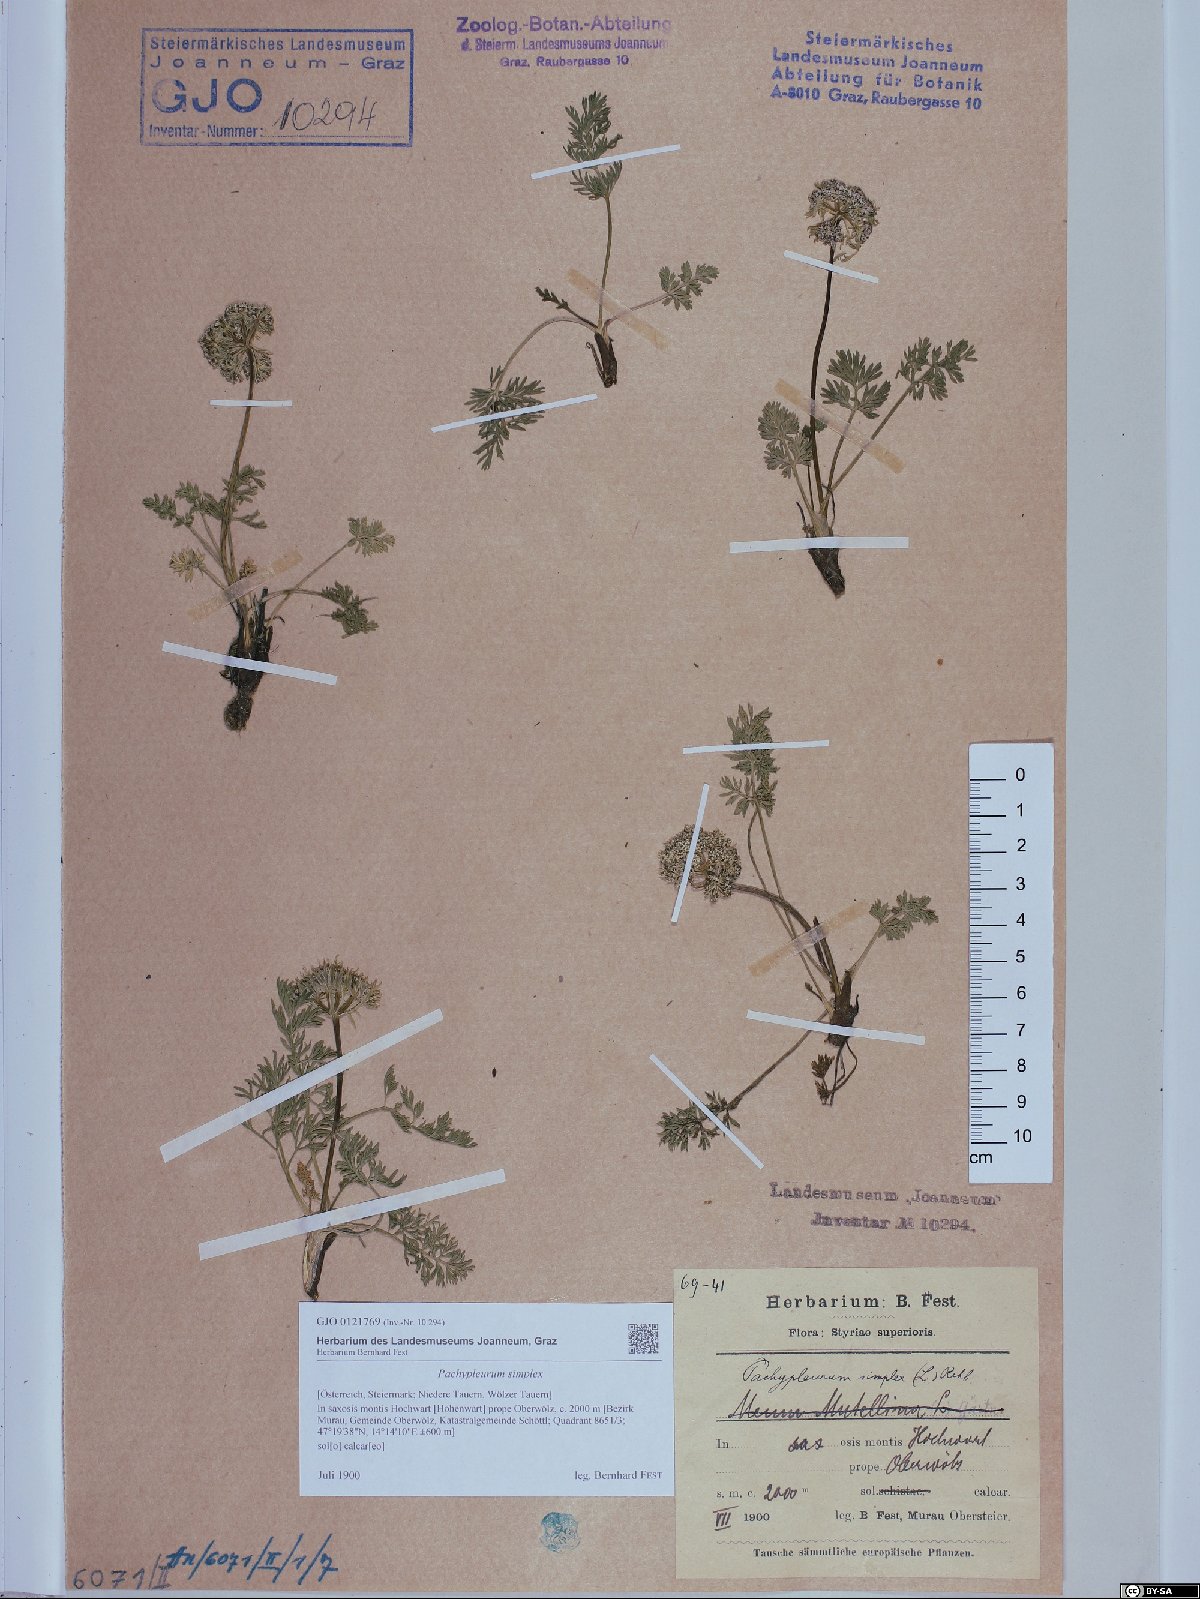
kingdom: Plantae
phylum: Tracheophyta
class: Magnoliopsida
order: Apiales
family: Apiaceae
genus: Pachypleurum
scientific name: Pachypleurum mutellinoides
